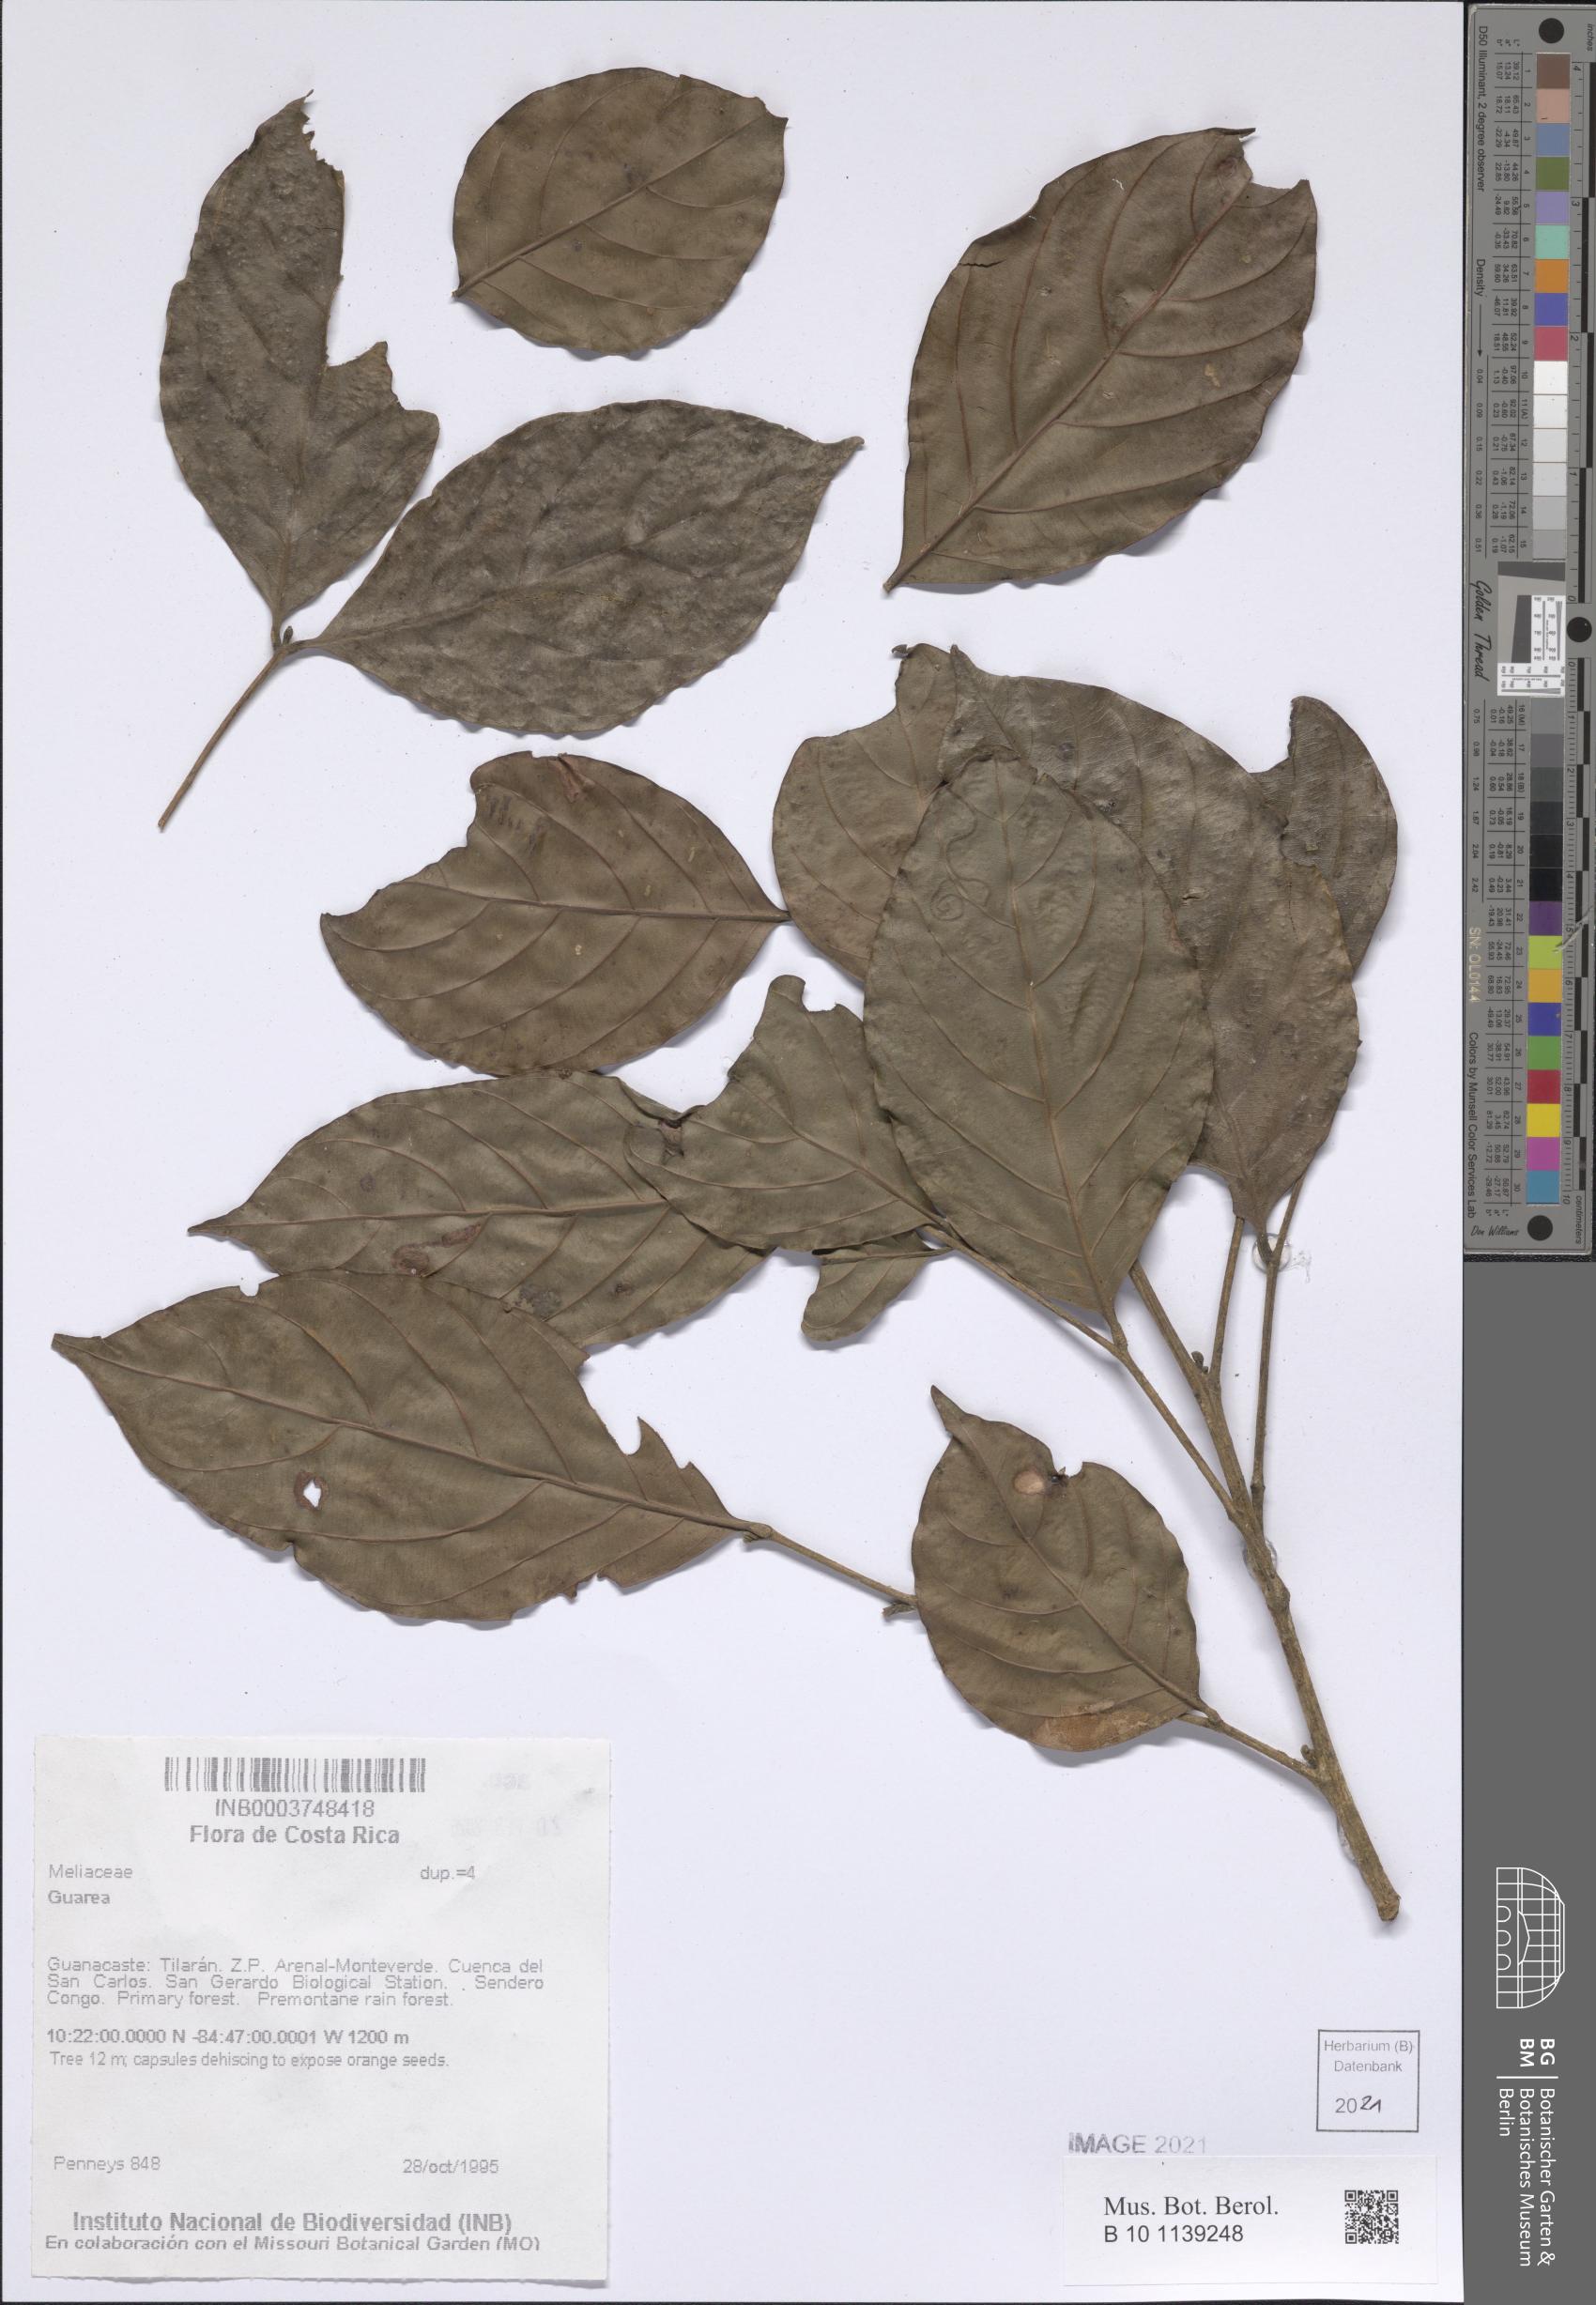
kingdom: Plantae
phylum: Tracheophyta
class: Magnoliopsida
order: Sapindales
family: Meliaceae
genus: Guarea
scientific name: Guarea
